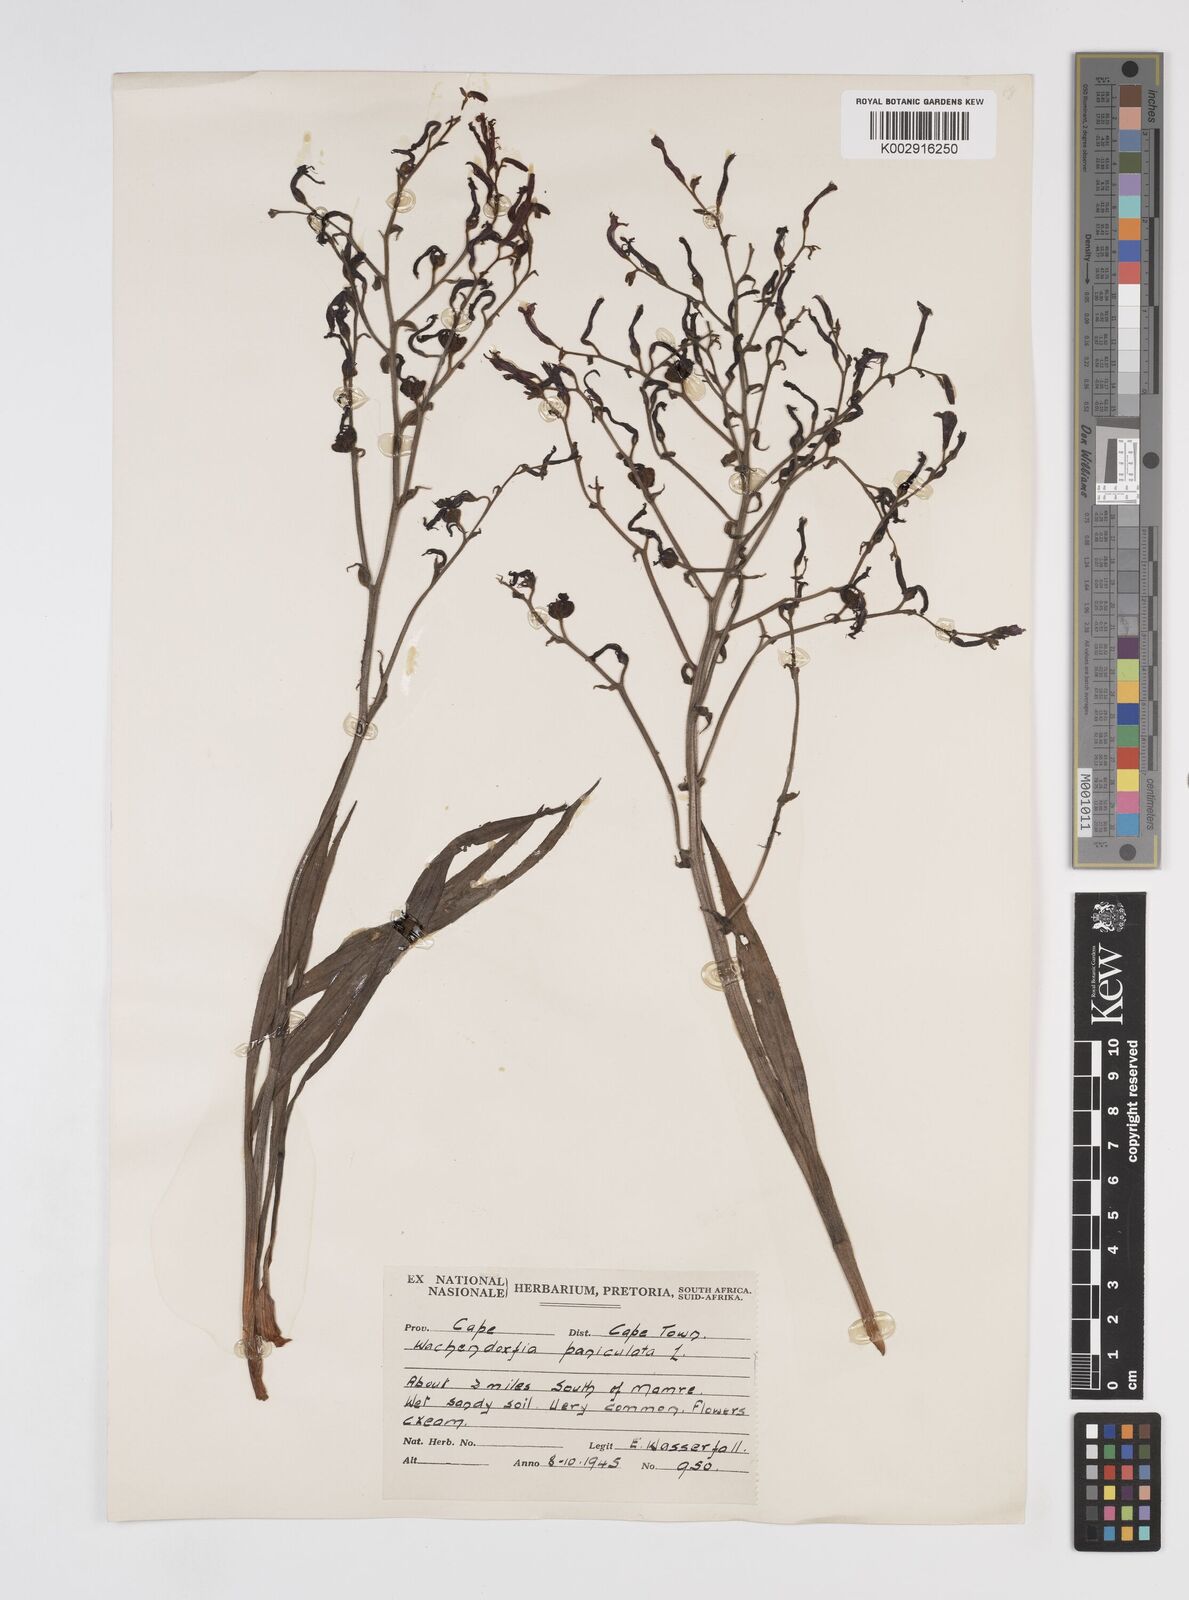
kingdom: Plantae
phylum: Tracheophyta
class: Liliopsida
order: Commelinales
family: Haemodoraceae
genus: Wachendorfia
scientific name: Wachendorfia paniculata
